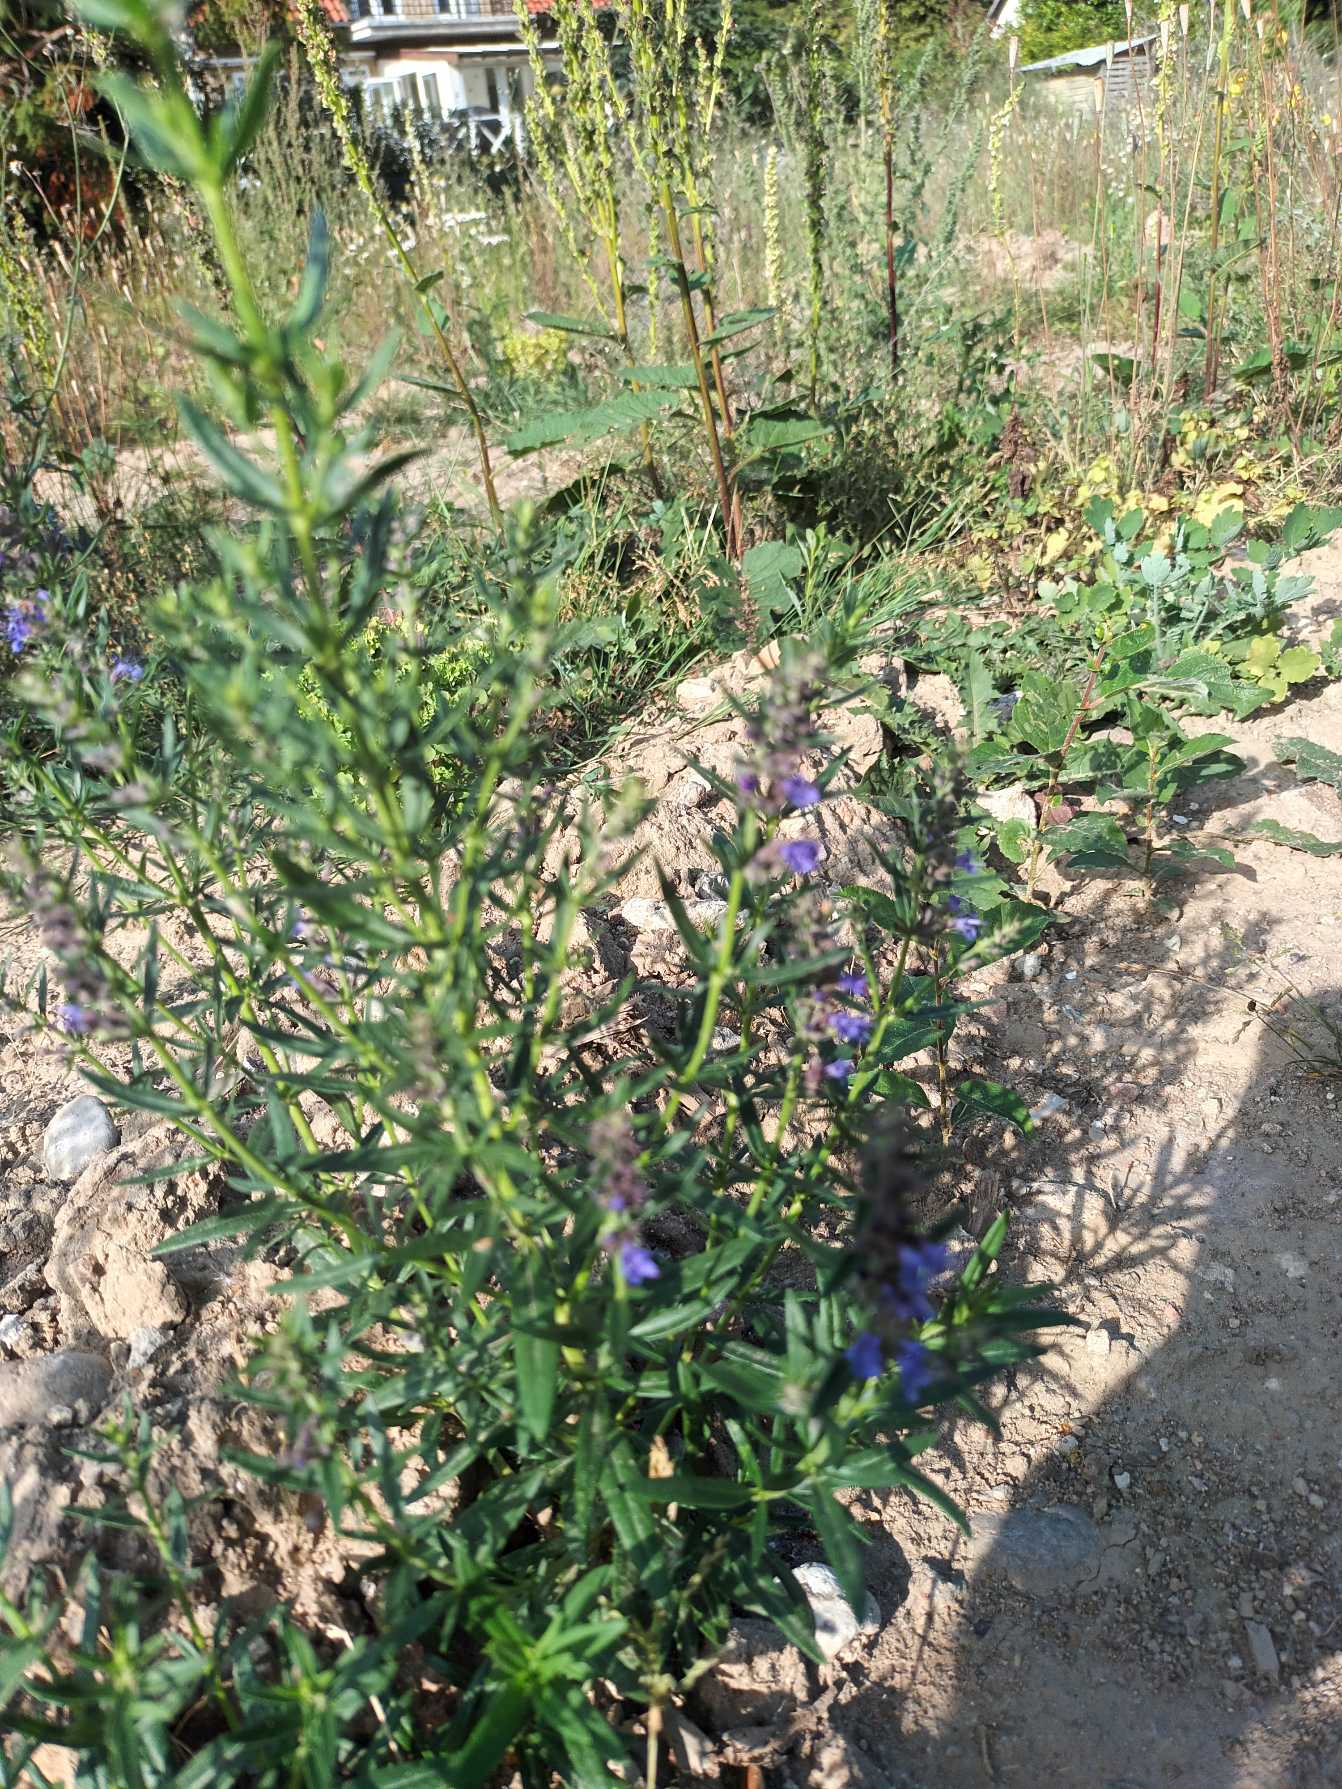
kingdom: Plantae
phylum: Tracheophyta
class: Magnoliopsida
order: Lamiales
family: Lamiaceae
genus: Hyssopus
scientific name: Hyssopus officinalis
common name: Isop
